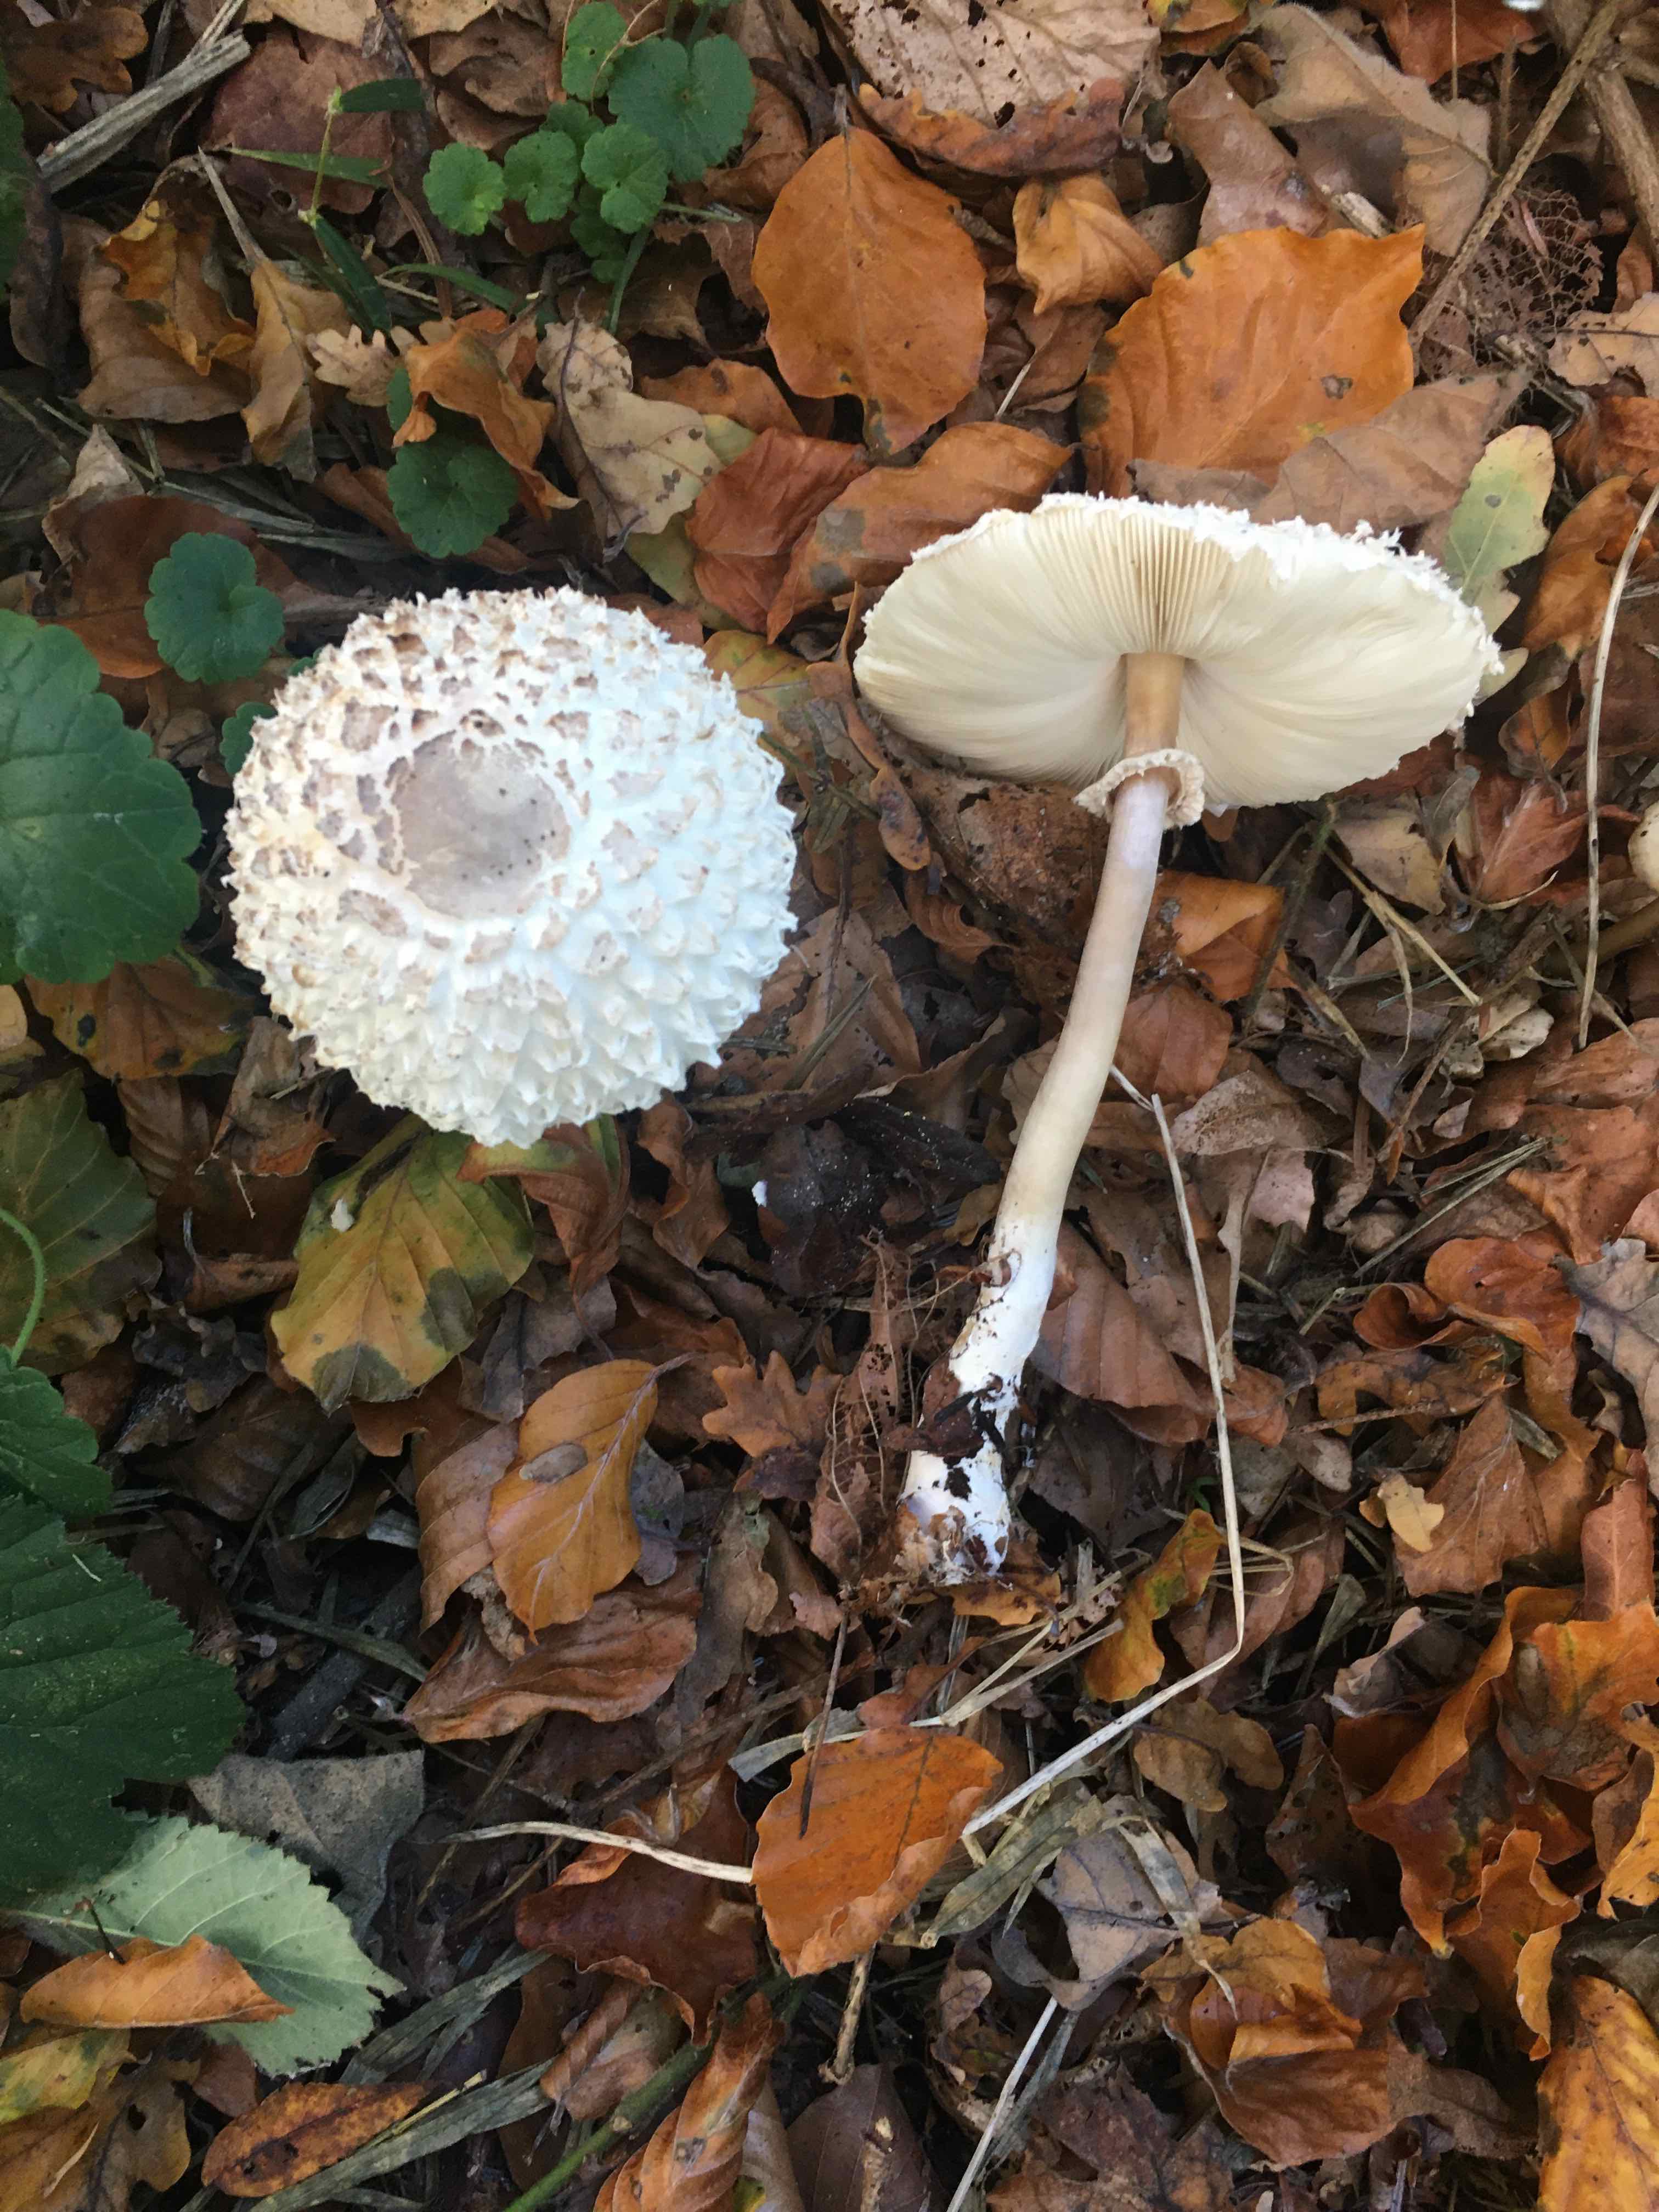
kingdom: Fungi
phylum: Basidiomycota
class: Agaricomycetes
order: Agaricales
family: Agaricaceae
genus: Leucoagaricus
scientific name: Leucoagaricus nympharum
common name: gran-silkehat
